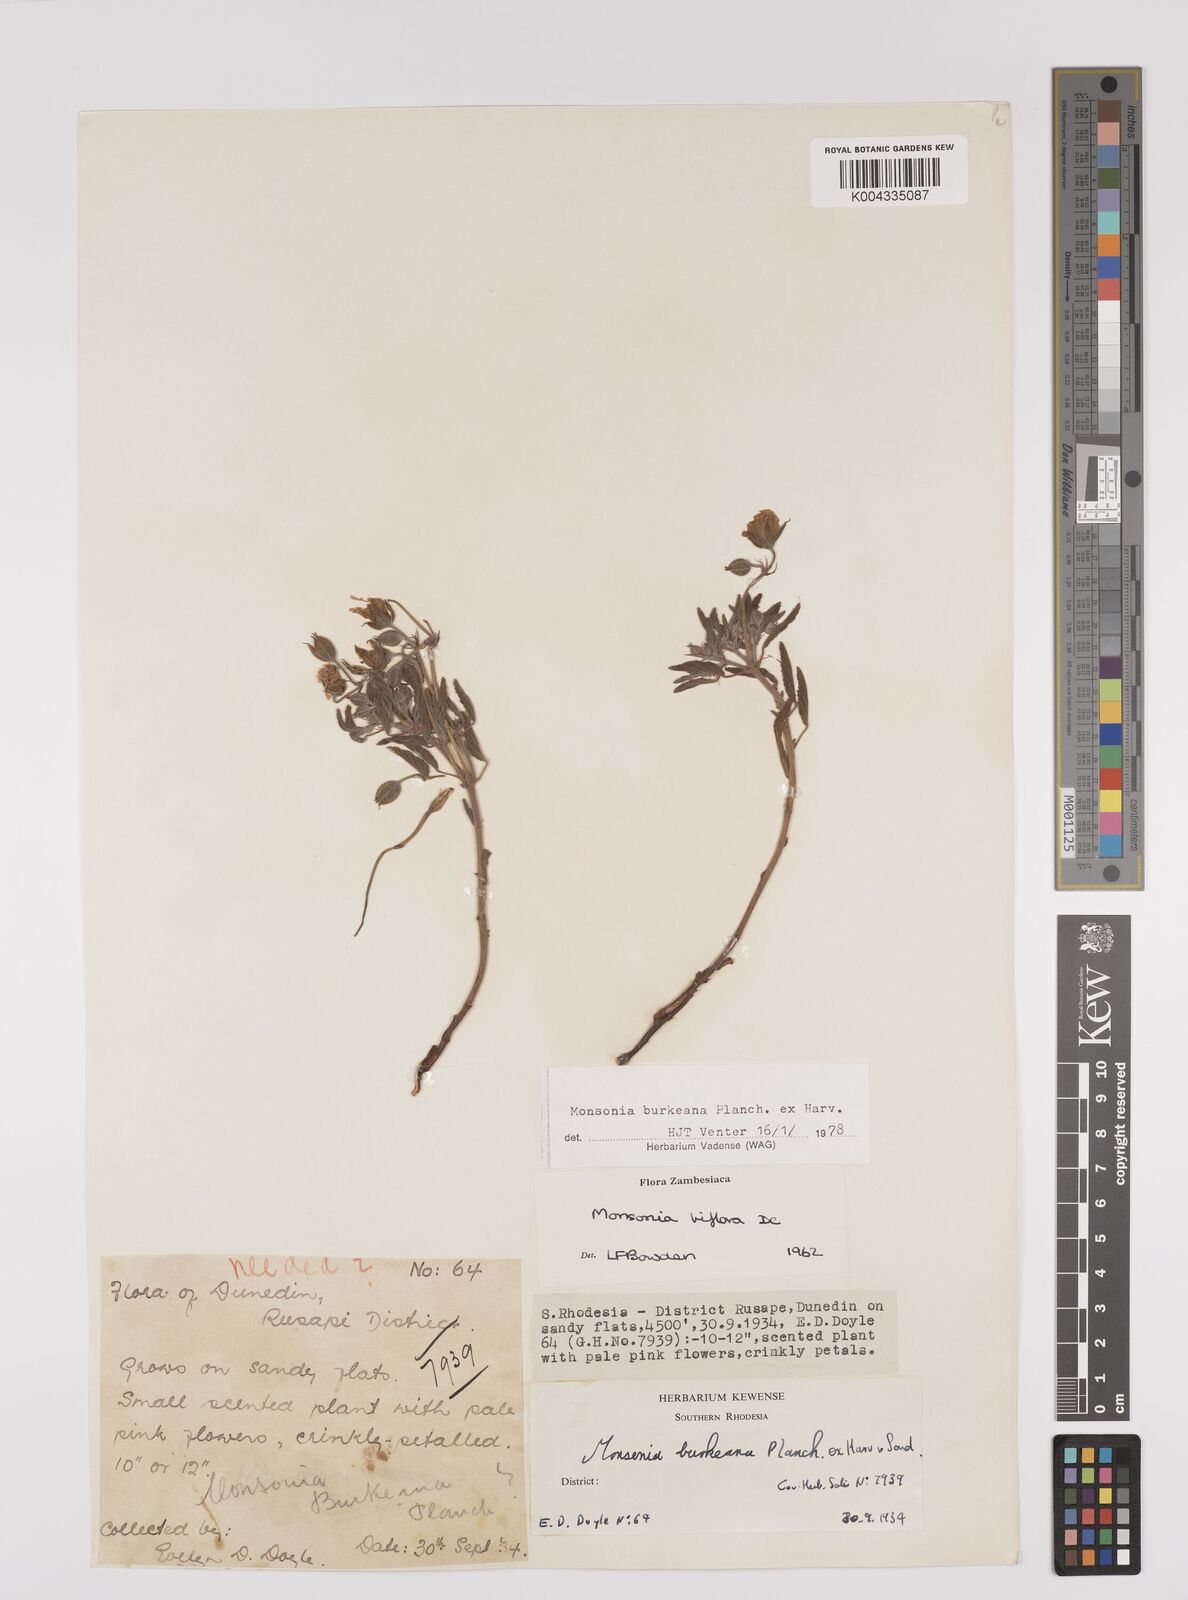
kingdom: Plantae
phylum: Tracheophyta
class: Magnoliopsida
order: Geraniales
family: Geraniaceae
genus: Monsonia
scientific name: Monsonia biflora
